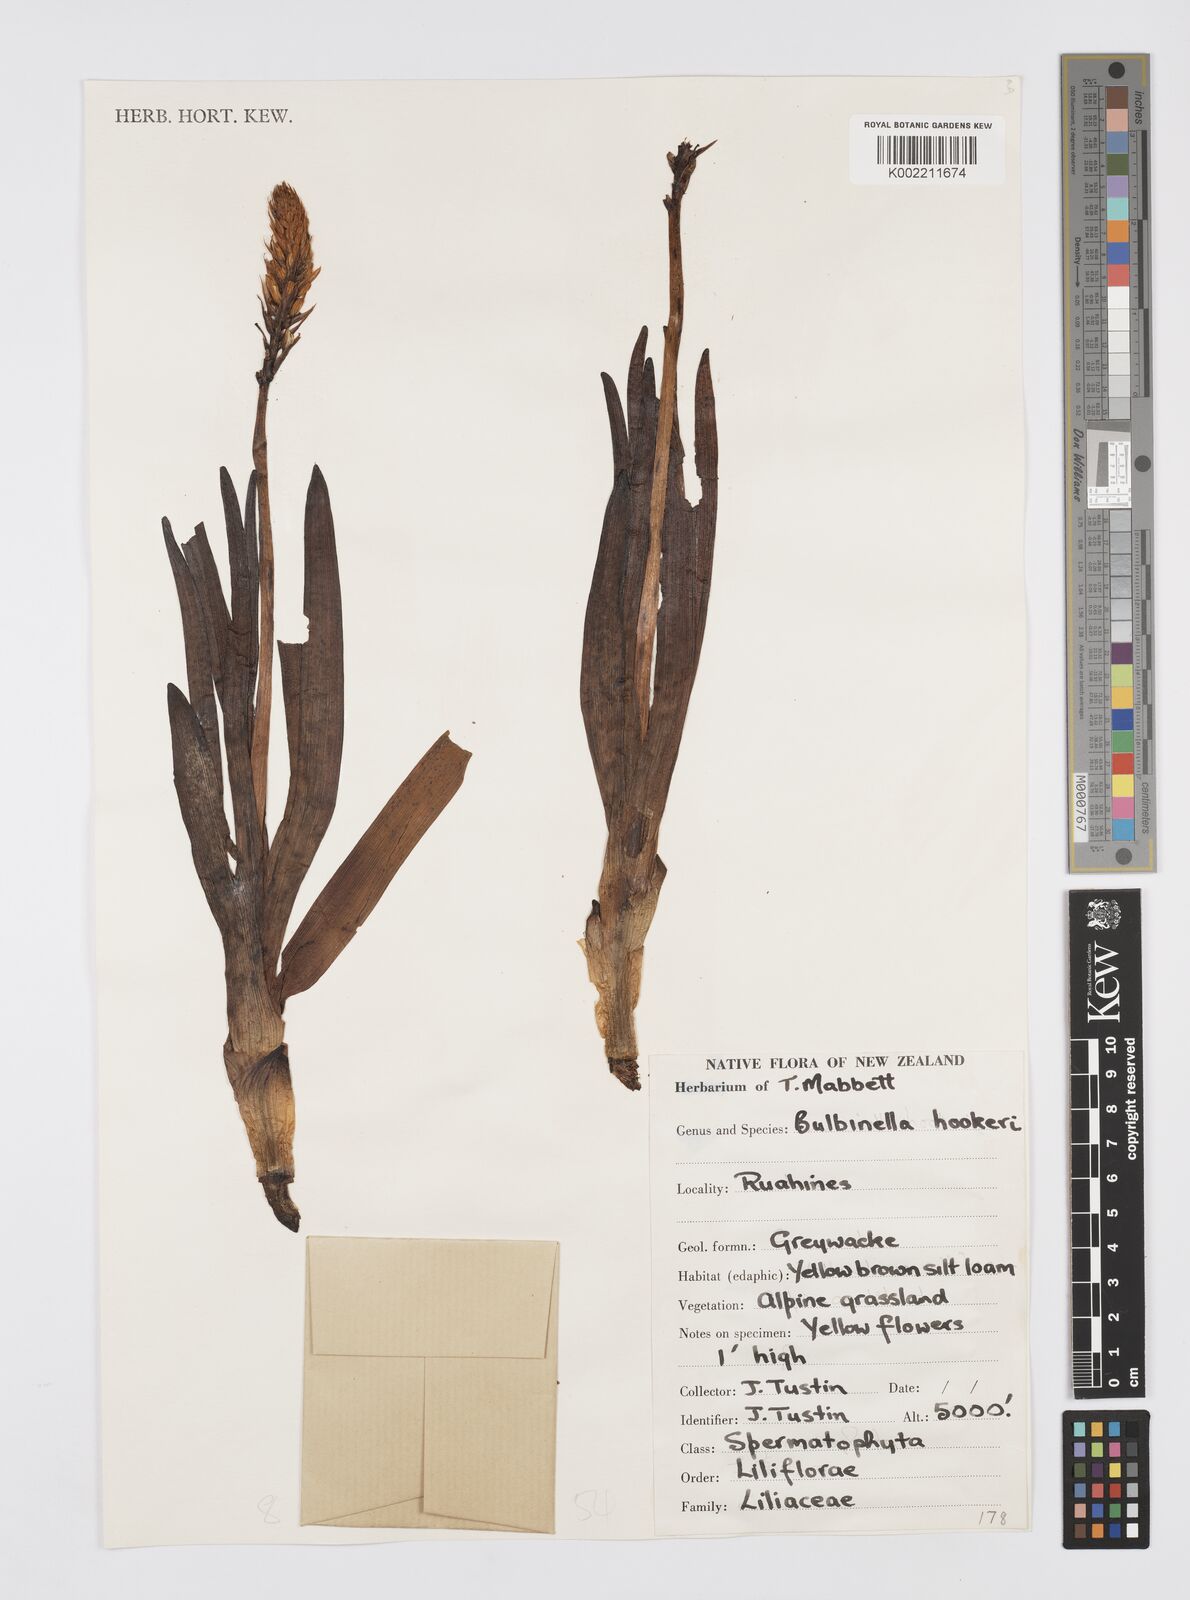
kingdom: Plantae
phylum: Tracheophyta
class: Liliopsida
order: Asparagales
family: Asphodelaceae
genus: Bulbinella
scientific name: Bulbinella hookeri
